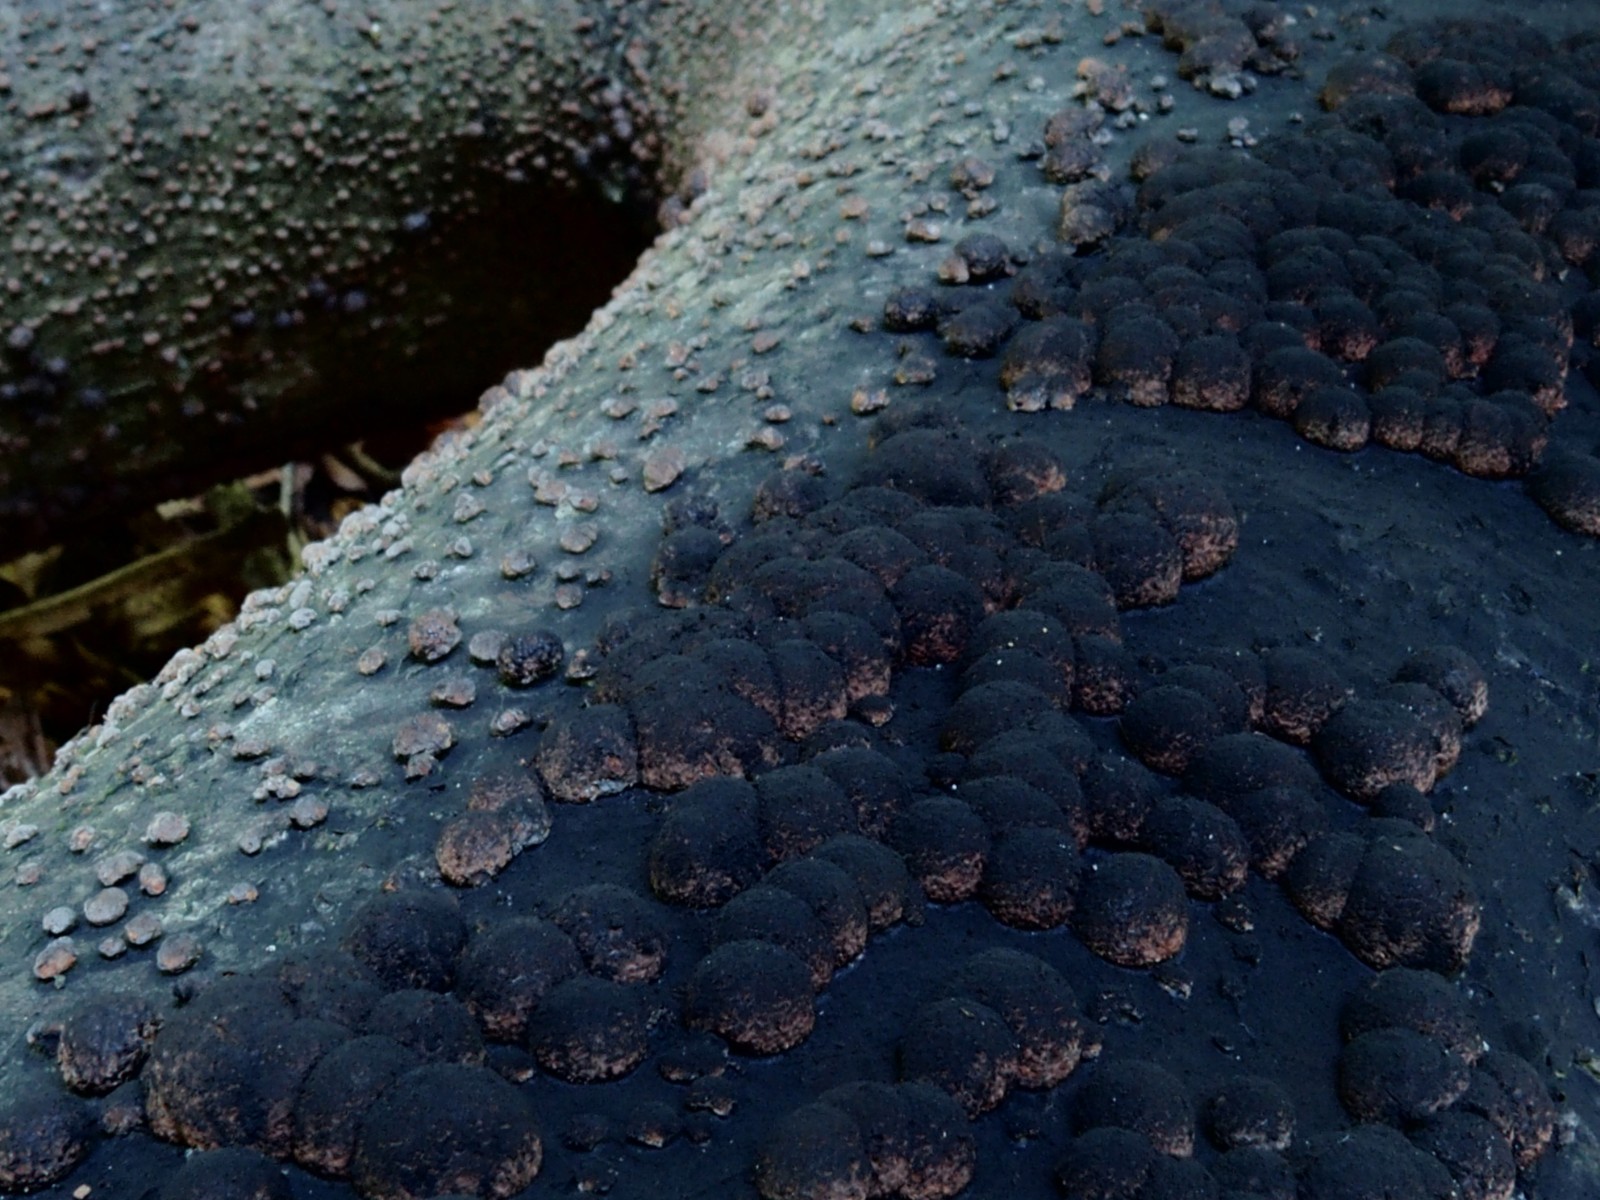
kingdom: Fungi
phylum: Ascomycota
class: Sordariomycetes
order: Xylariales
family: Hypoxylaceae
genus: Hypoxylon
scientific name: Hypoxylon fragiforme
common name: kuljordbær
